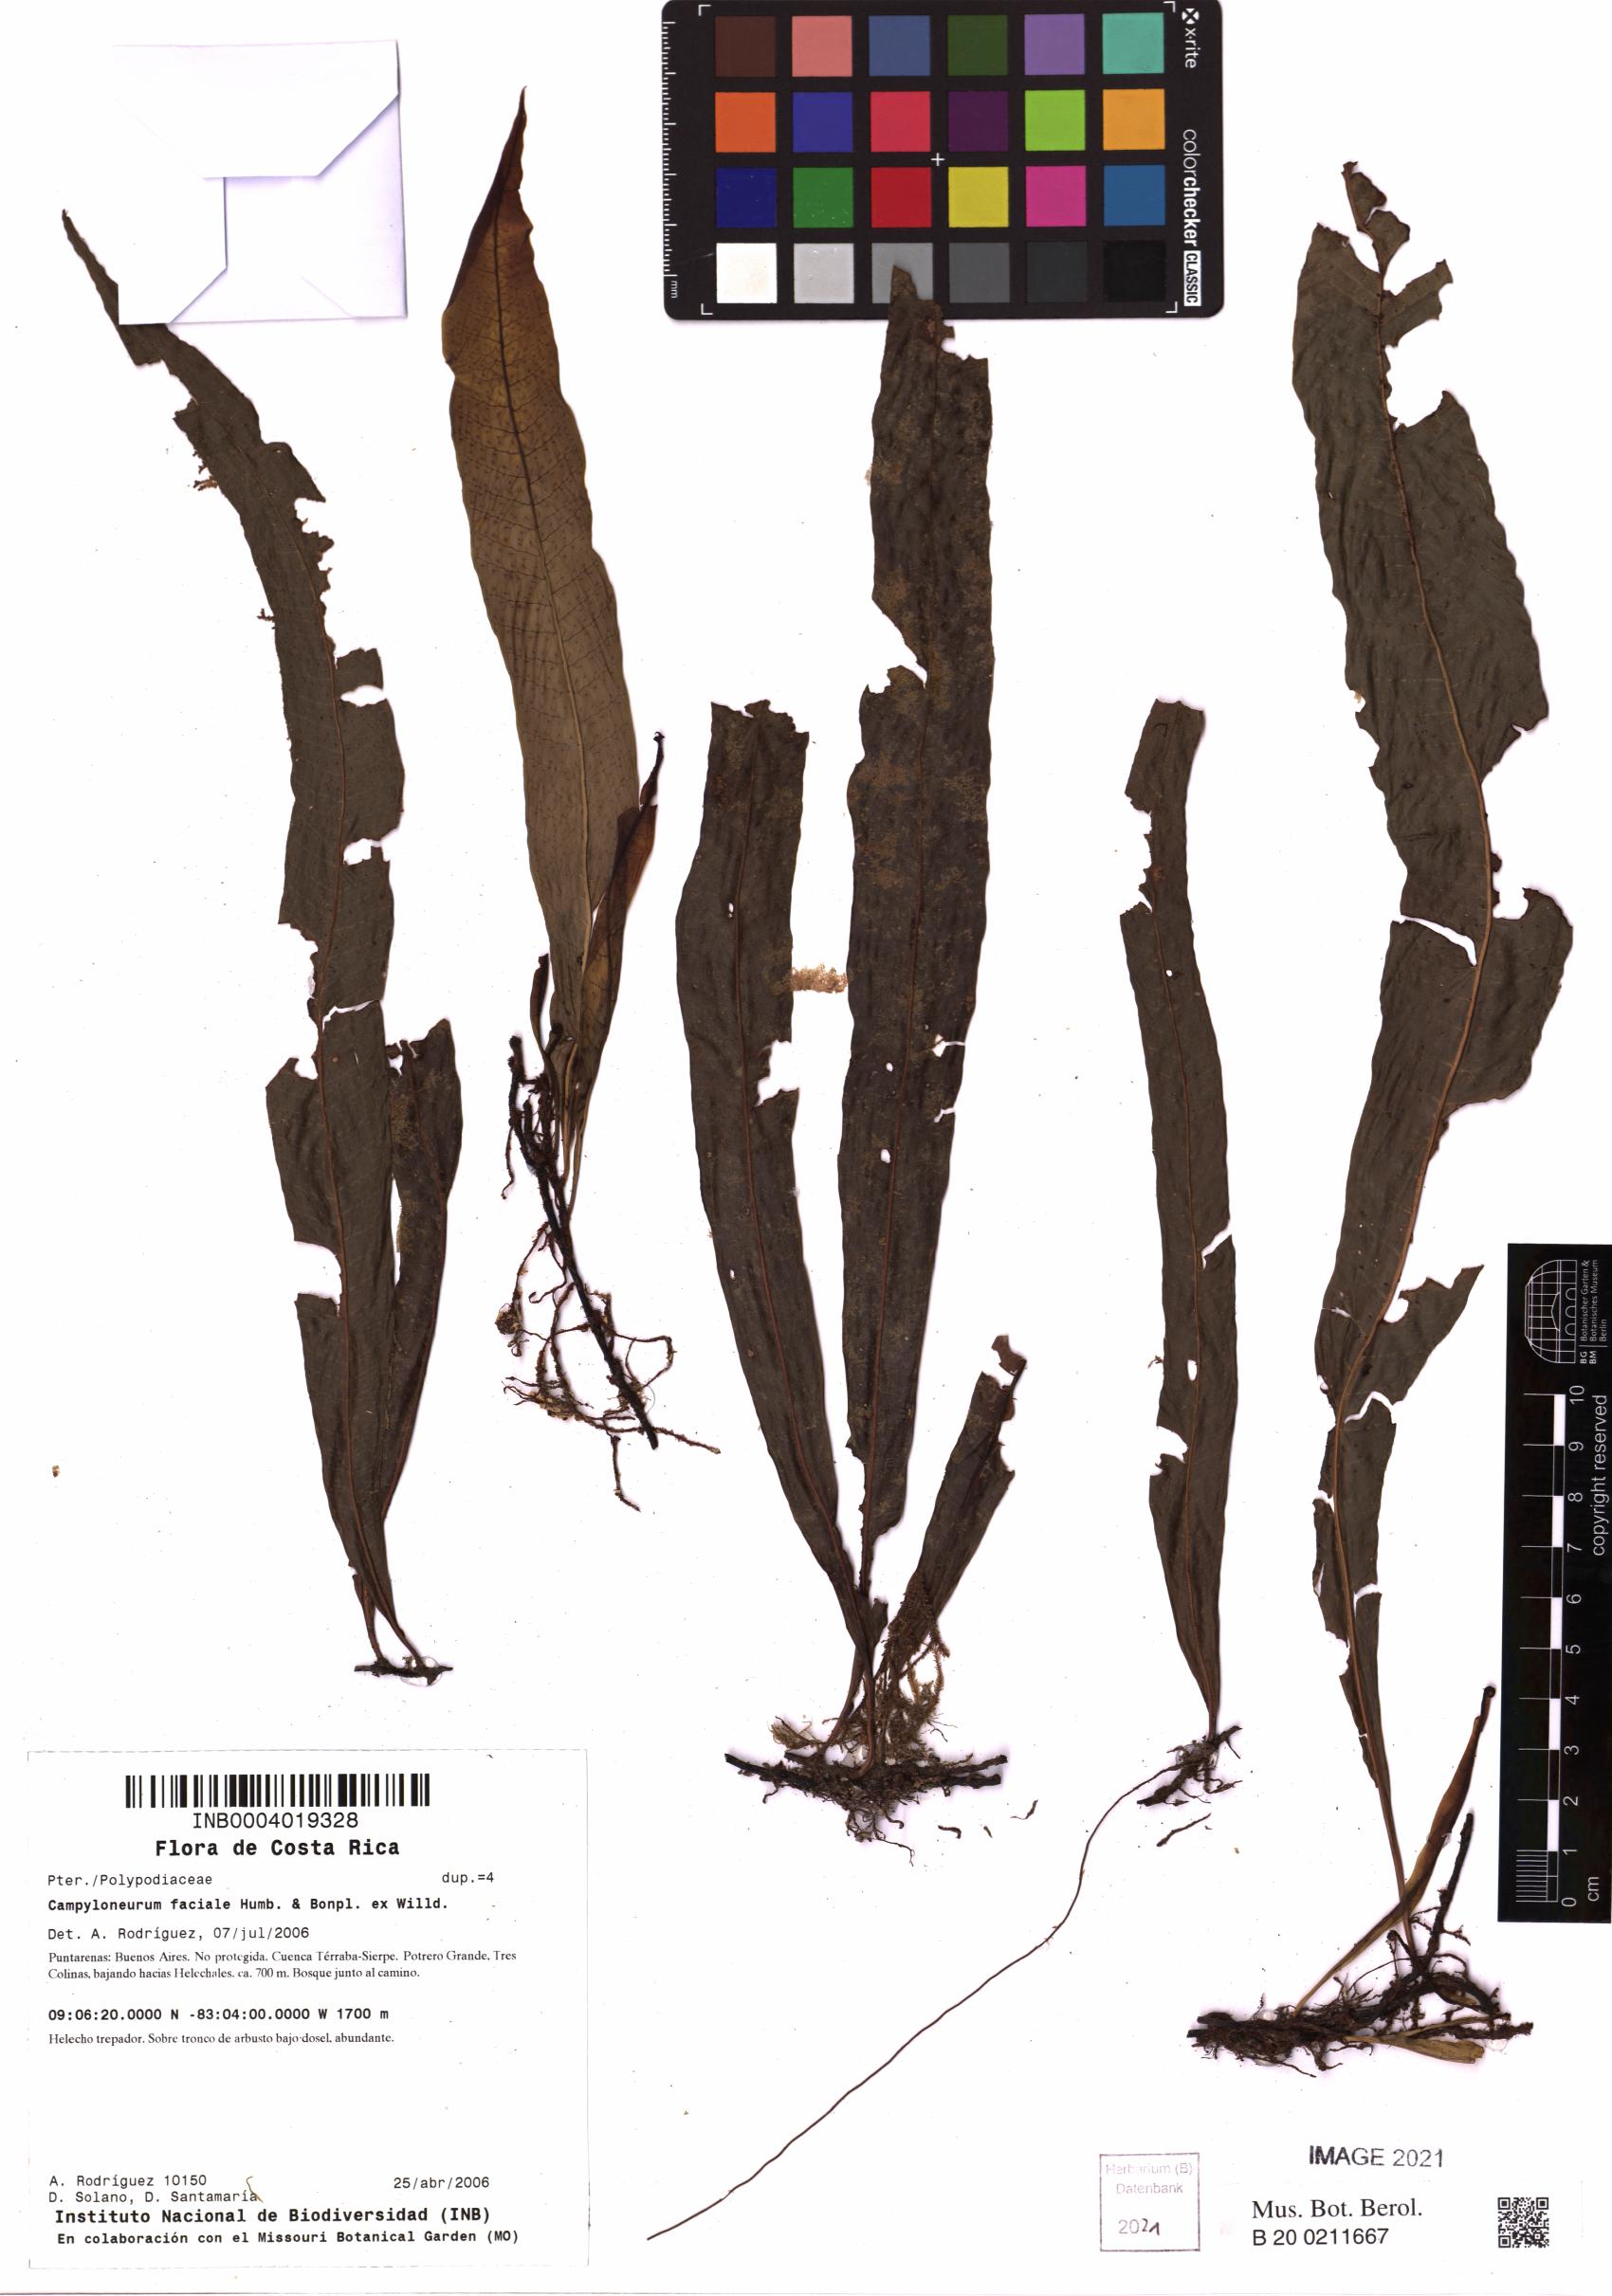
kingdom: Plantae
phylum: Tracheophyta
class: Polypodiopsida
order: Polypodiales
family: Polypodiaceae
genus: Campyloneurum
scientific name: Campyloneurum repens
